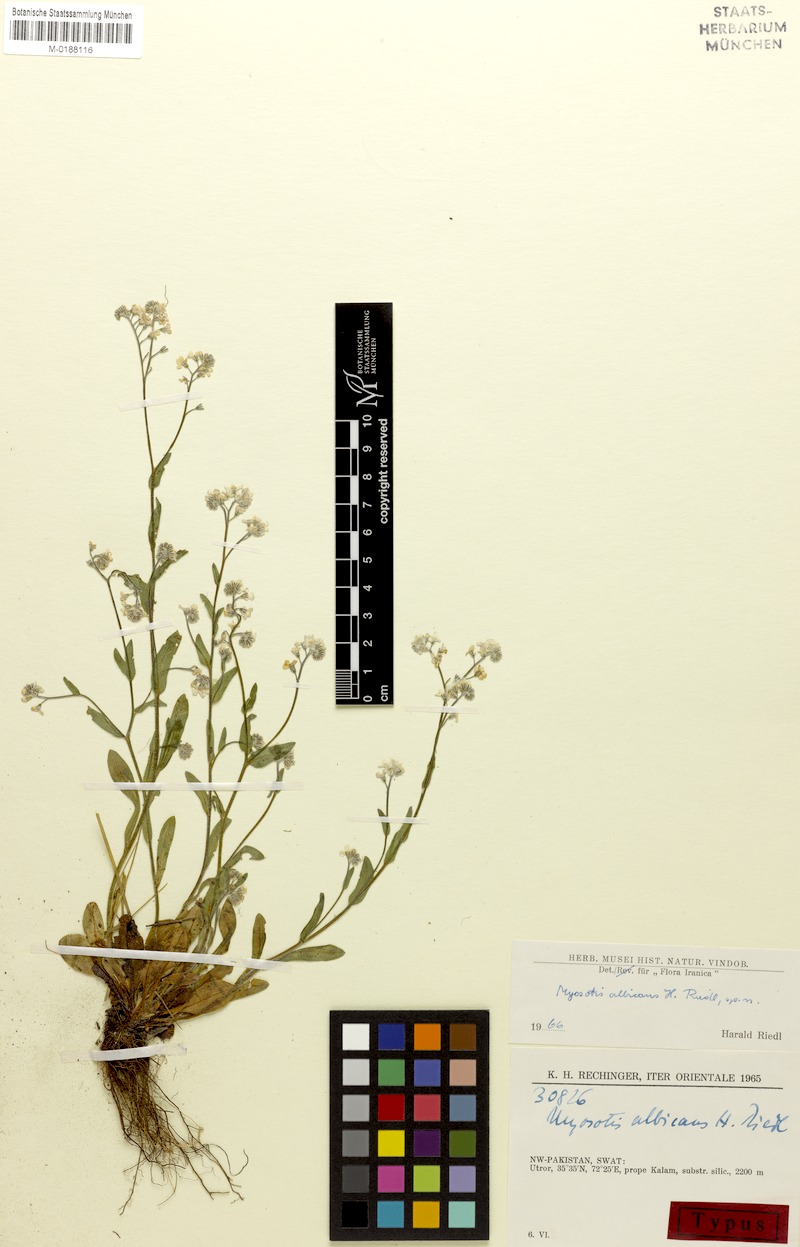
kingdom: Plantae
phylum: Tracheophyta
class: Magnoliopsida
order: Boraginales
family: Boraginaceae
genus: Myosotis
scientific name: Myosotis sylvatica
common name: Wood forget-me-not
